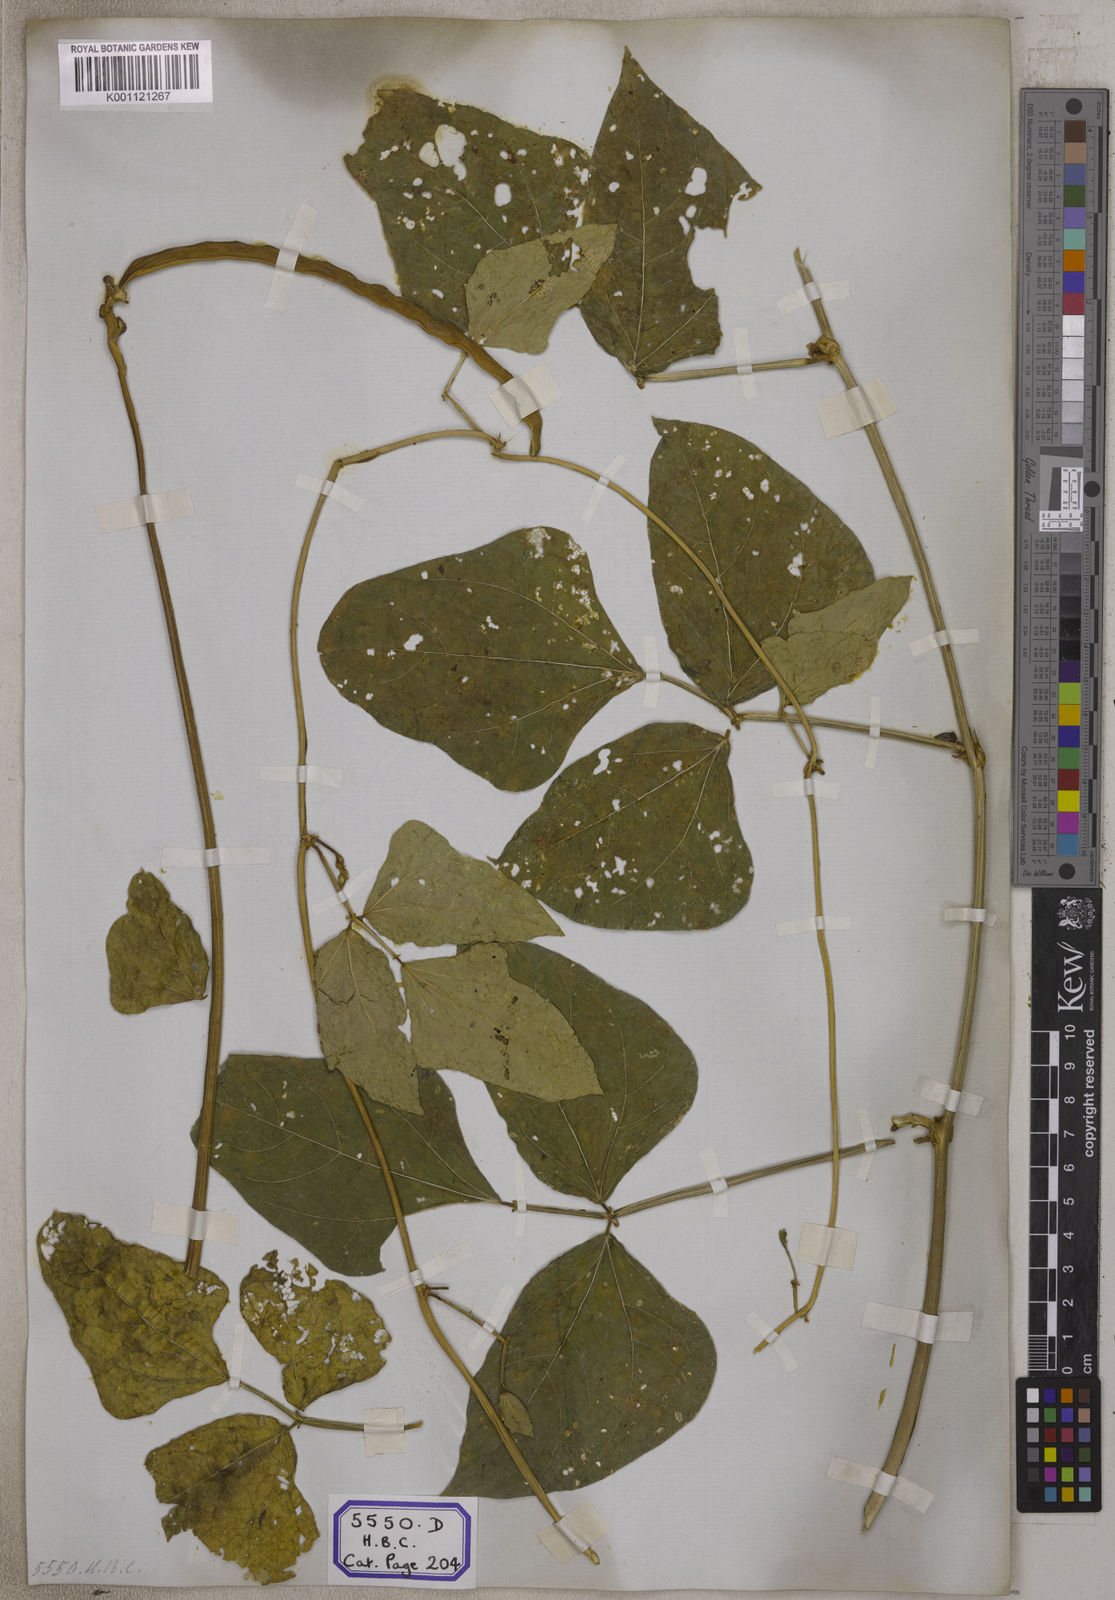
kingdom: Plantae
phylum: Tracheophyta
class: Magnoliopsida
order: Fabales
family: Fabaceae
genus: Vigna
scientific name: Vigna unguiculata
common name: Cowpea
